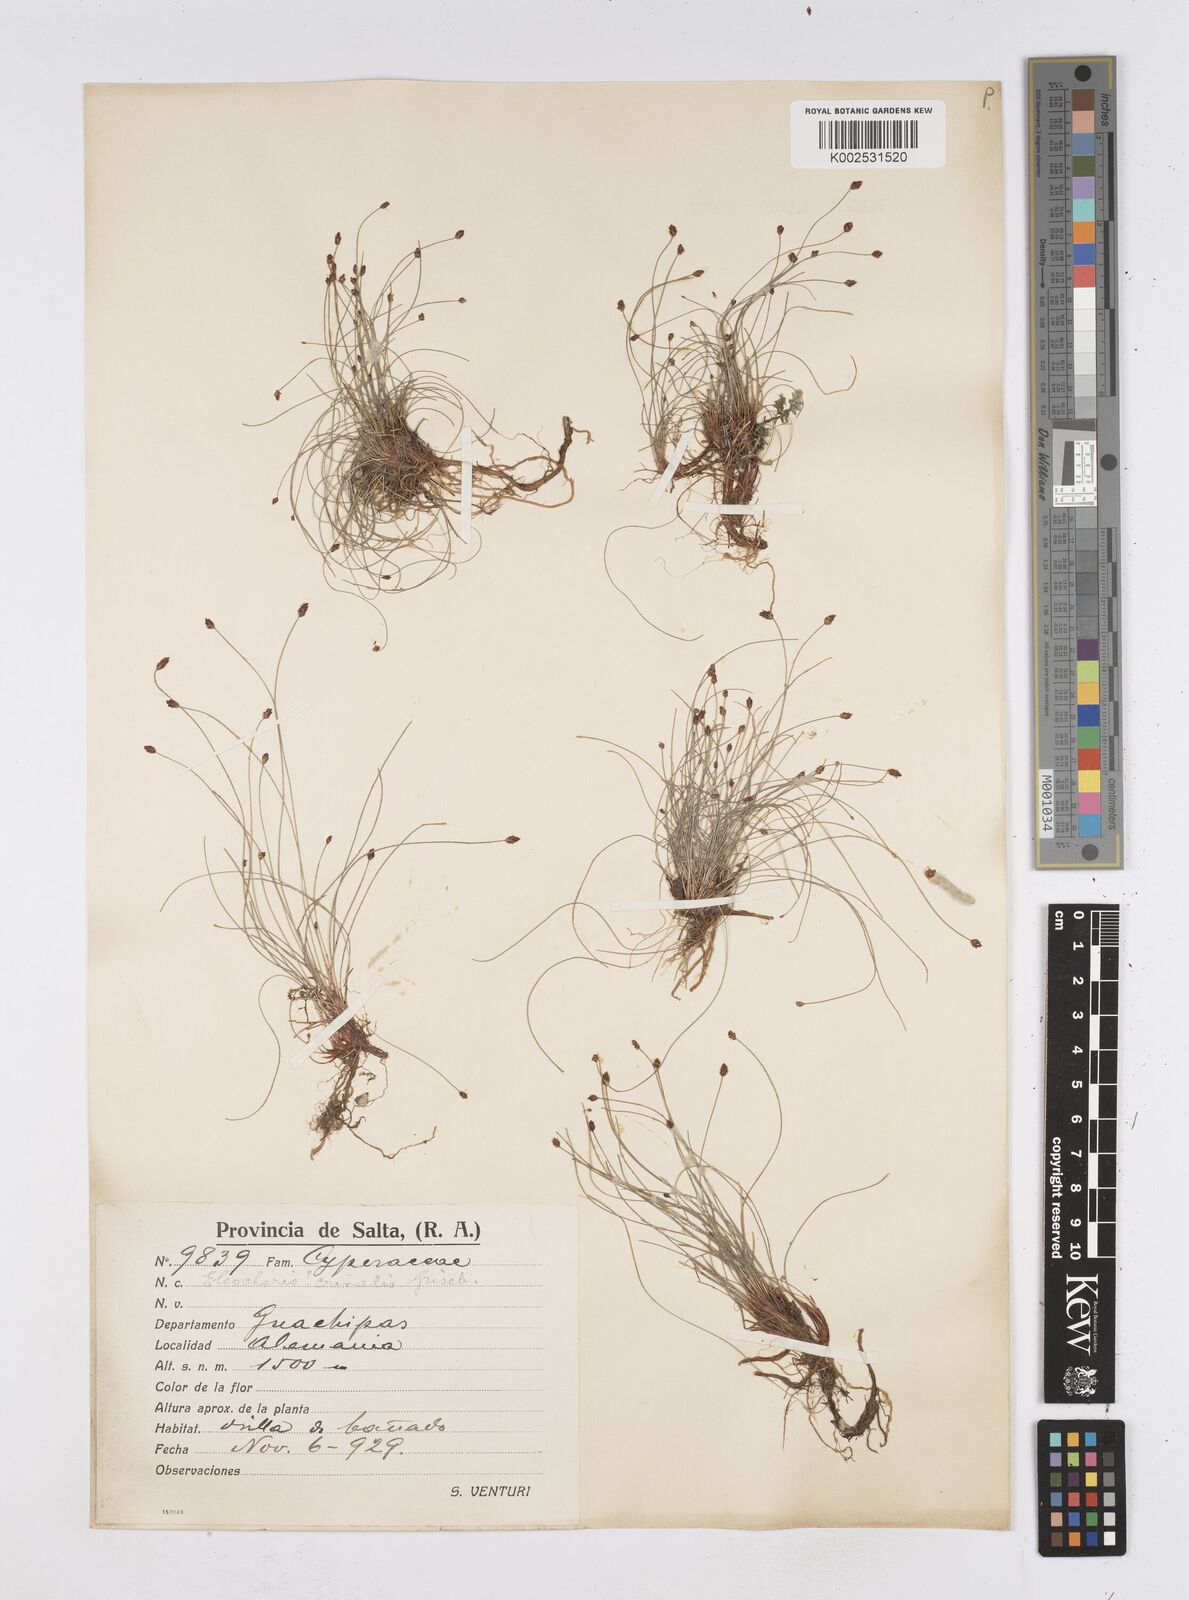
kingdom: Plantae
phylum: Tracheophyta
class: Liliopsida
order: Poales
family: Cyperaceae
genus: Eleocharis
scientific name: Eleocharis crinalis
